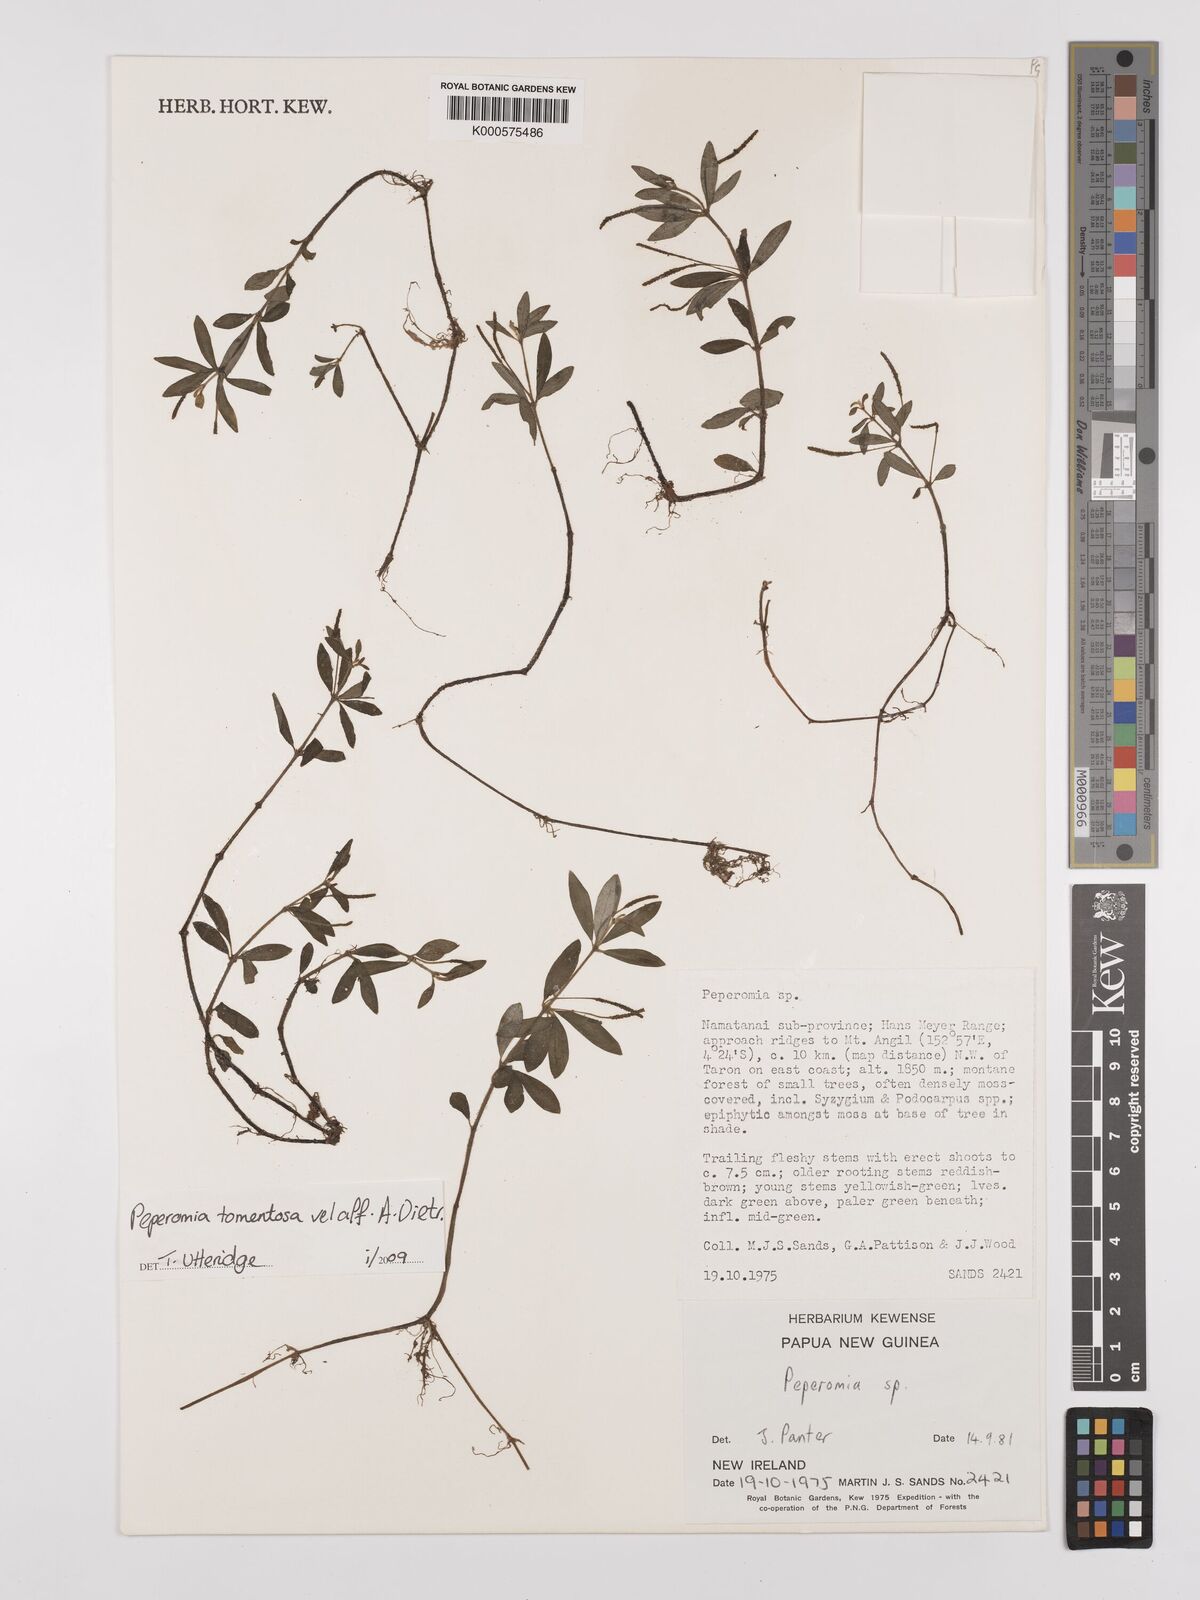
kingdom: Plantae
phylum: Tracheophyta
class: Magnoliopsida
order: Piperales
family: Piperaceae
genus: Peperomia
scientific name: Peperomia
